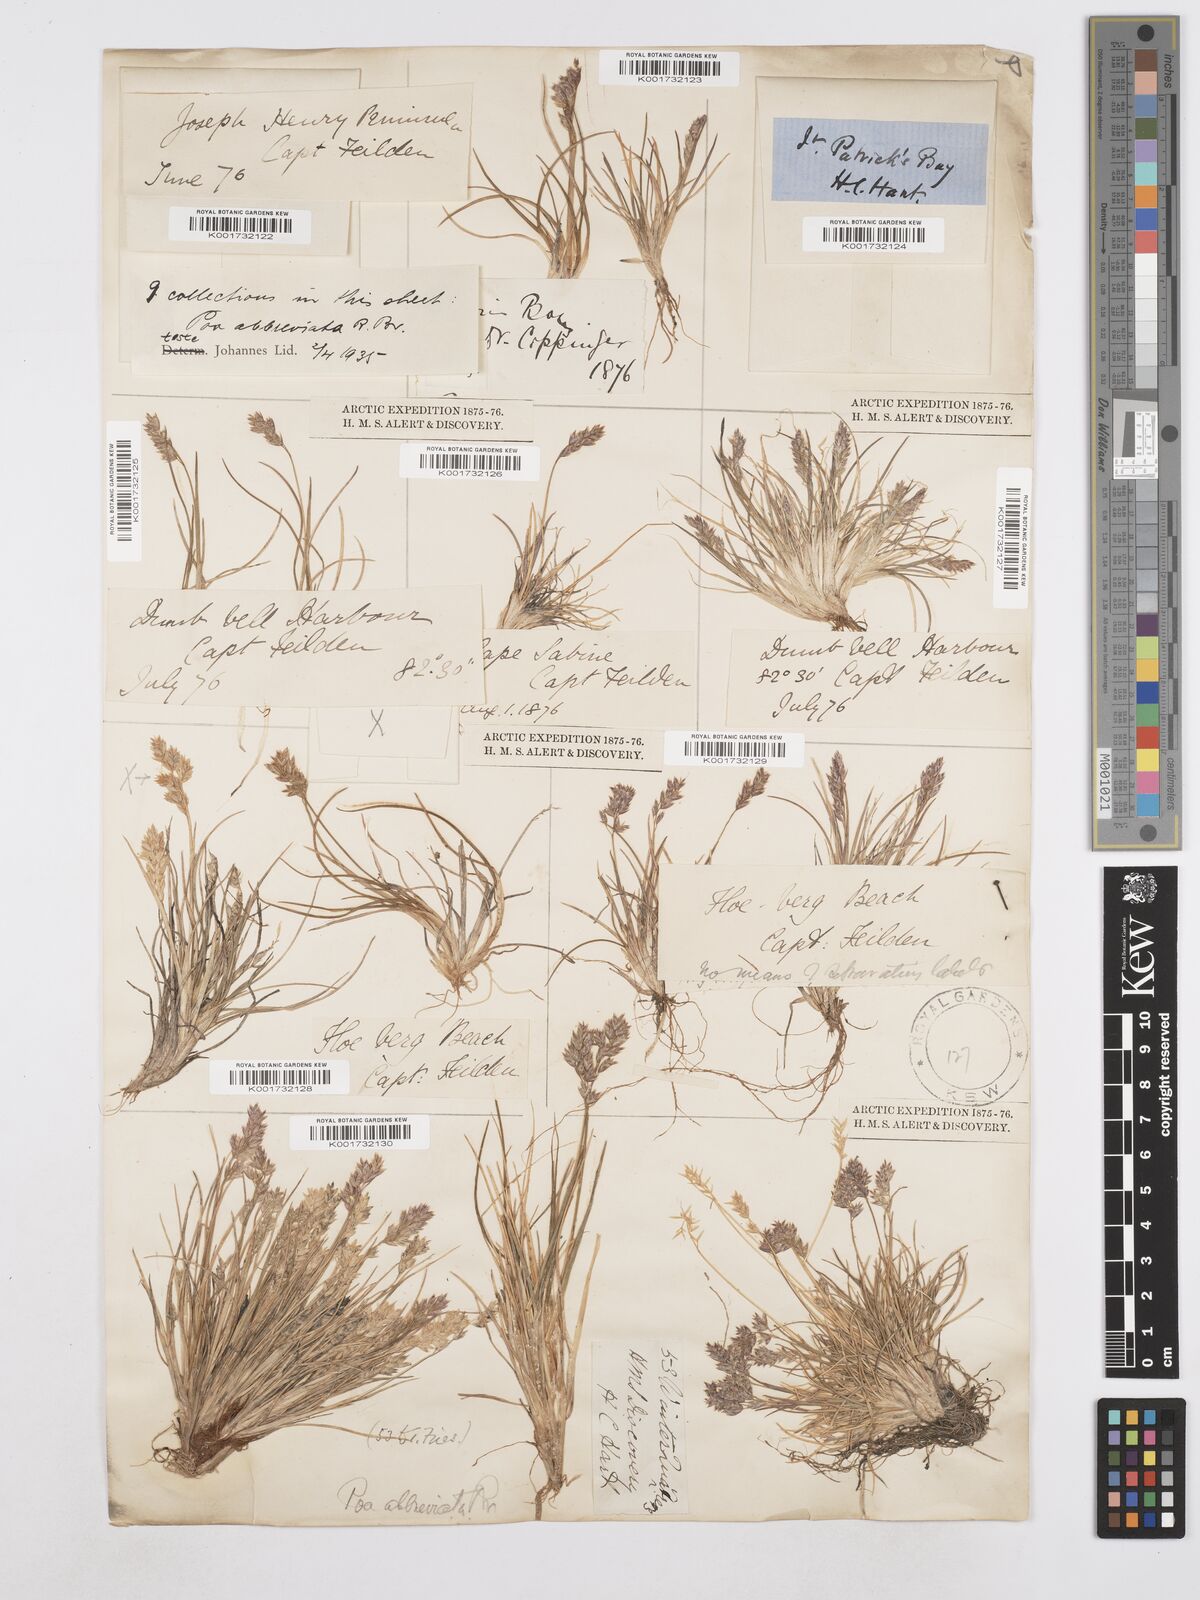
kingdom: Plantae
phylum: Tracheophyta
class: Liliopsida
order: Poales
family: Poaceae
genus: Poa
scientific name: Poa abbreviata
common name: Abbreviated bluegrass
